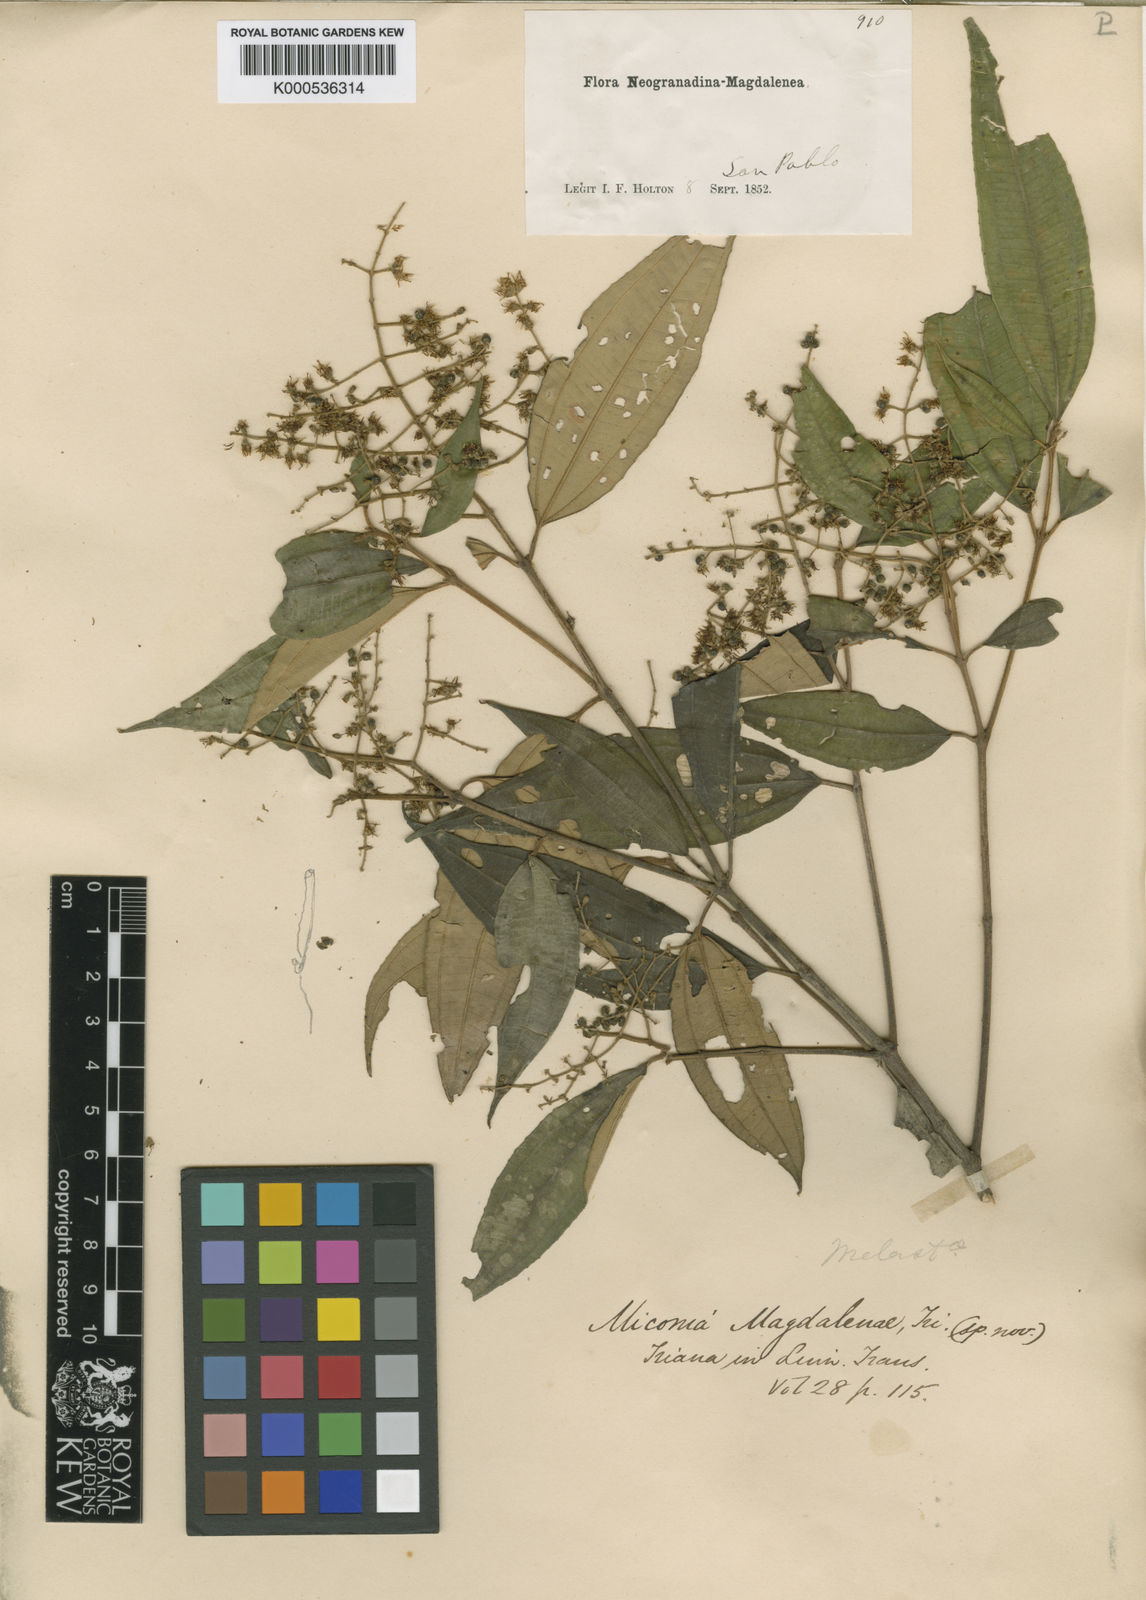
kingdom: Plantae
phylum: Tracheophyta
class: Magnoliopsida
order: Myrtales
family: Melastomataceae
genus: Miconia
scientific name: Miconia magdalenae
